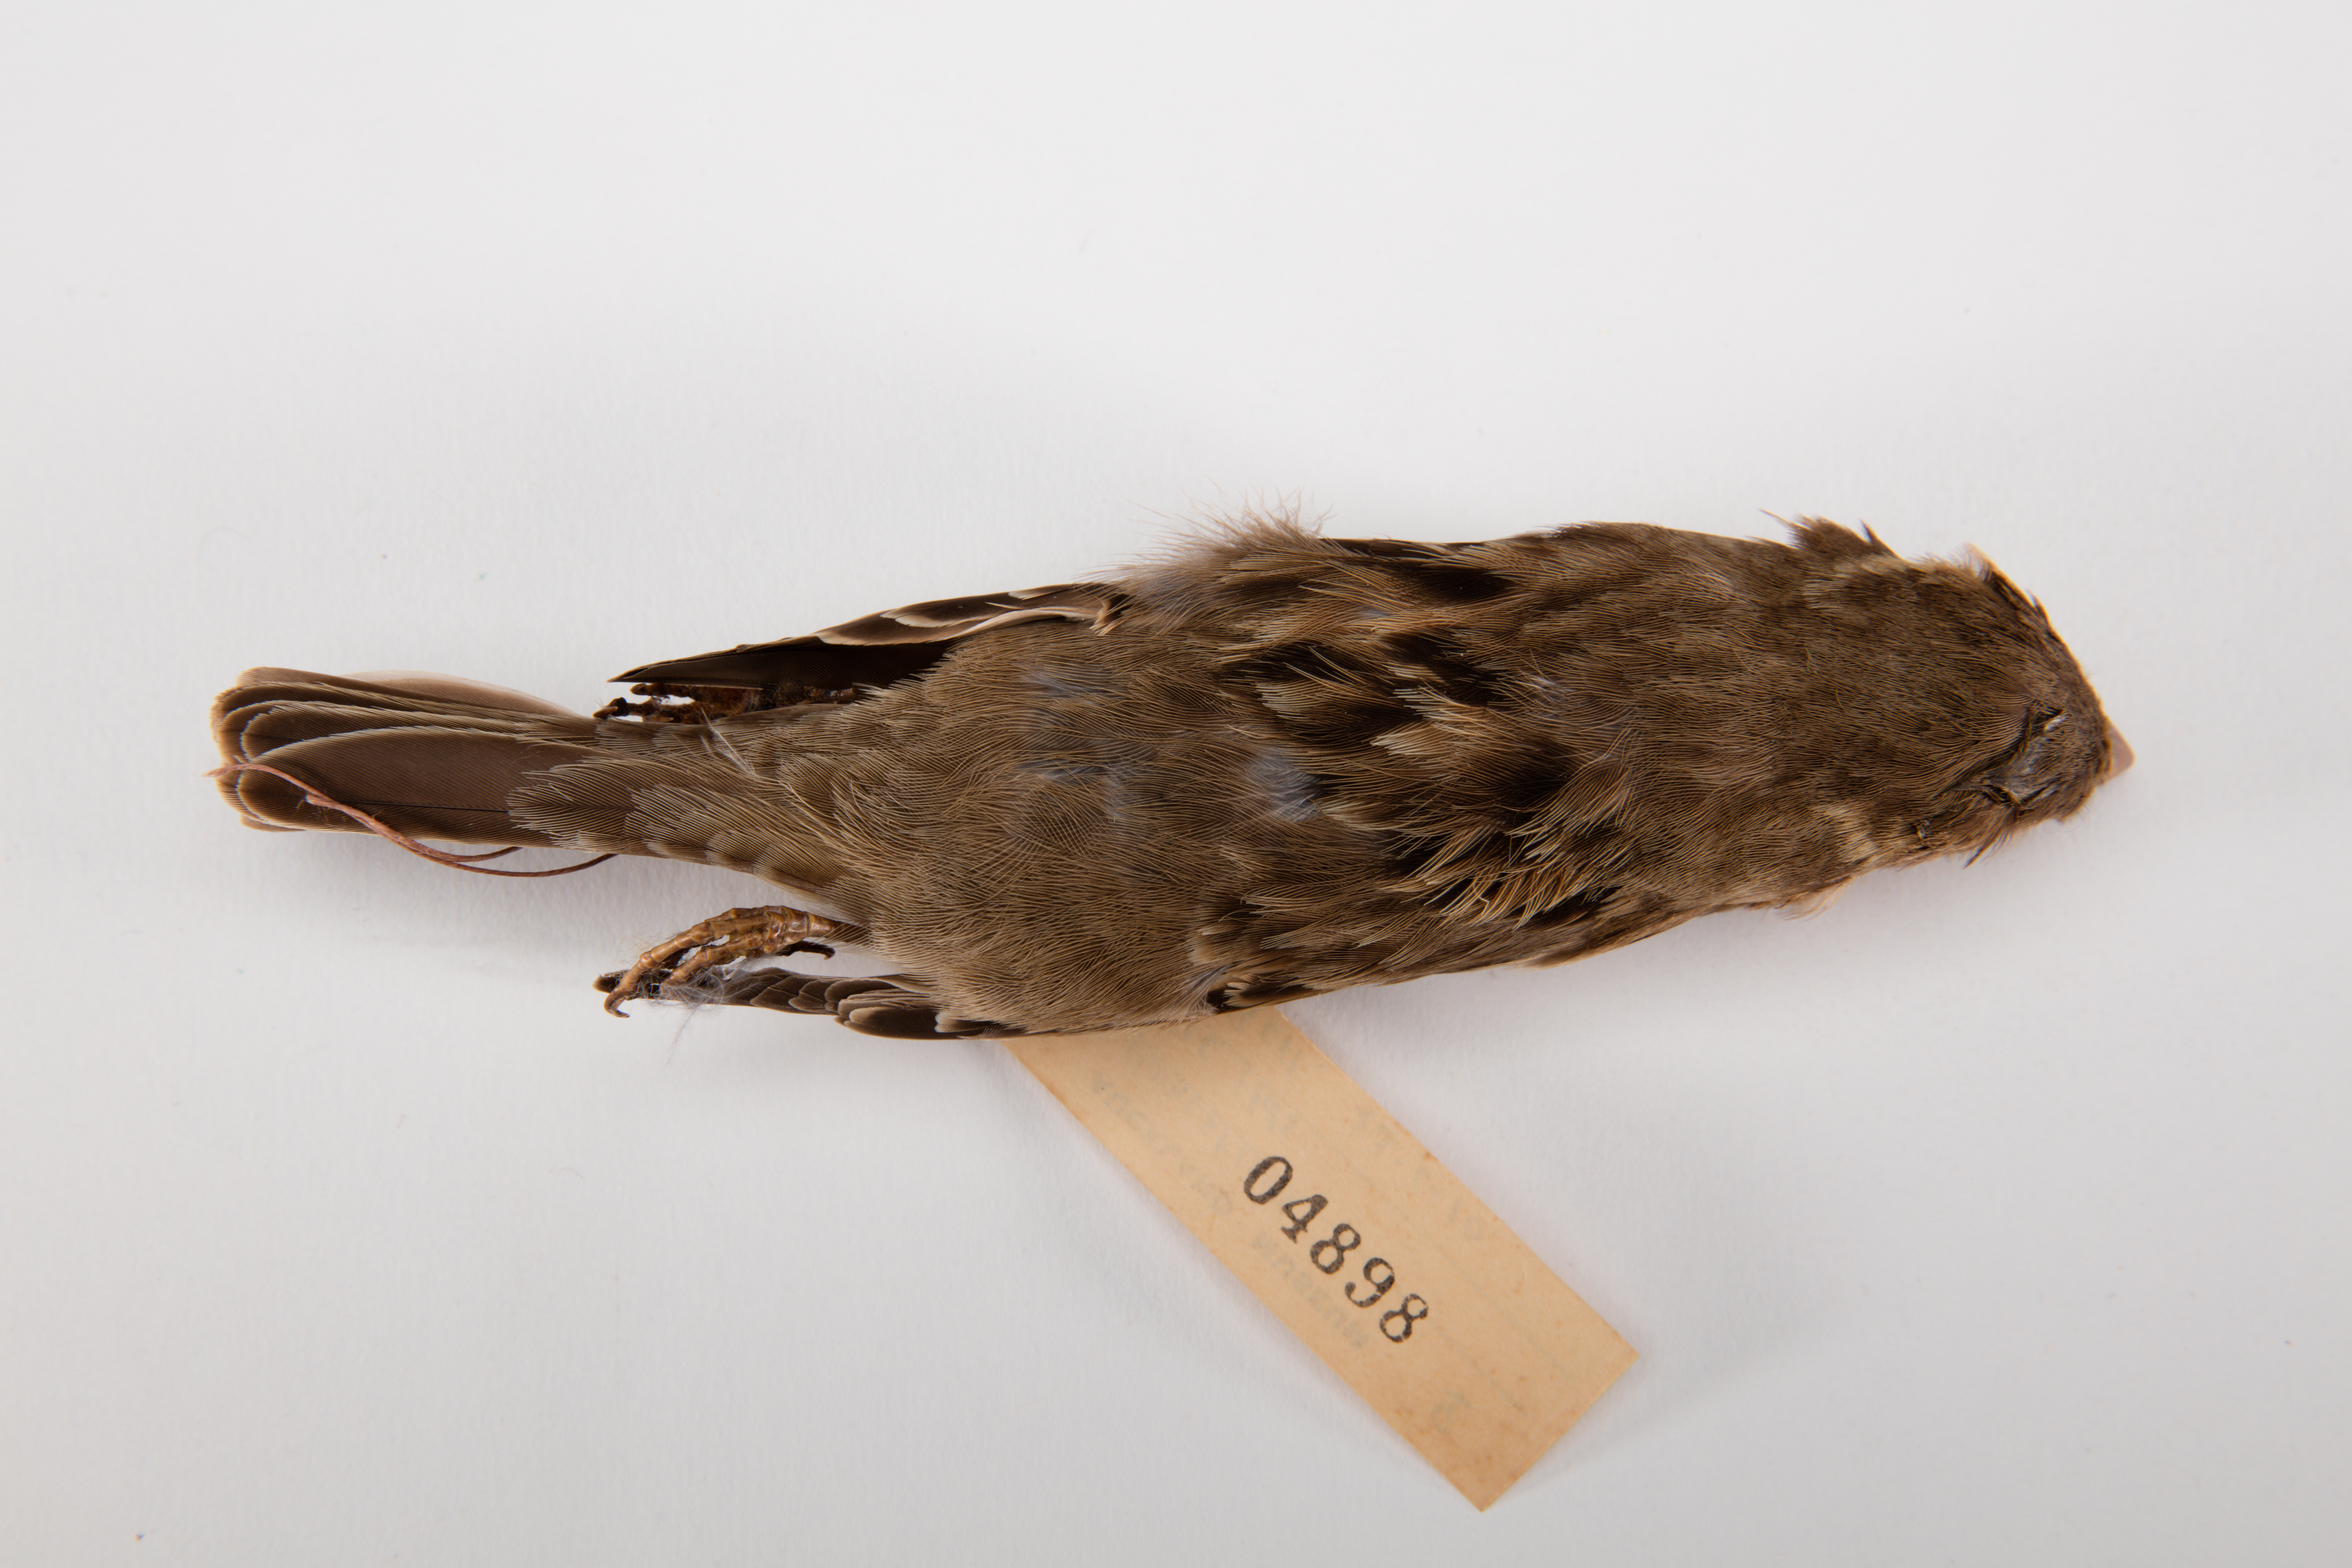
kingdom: Animalia
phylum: Chordata
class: Aves
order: Passeriformes
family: Passeridae
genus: Passer
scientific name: Passer domesticus
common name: House sparrow
